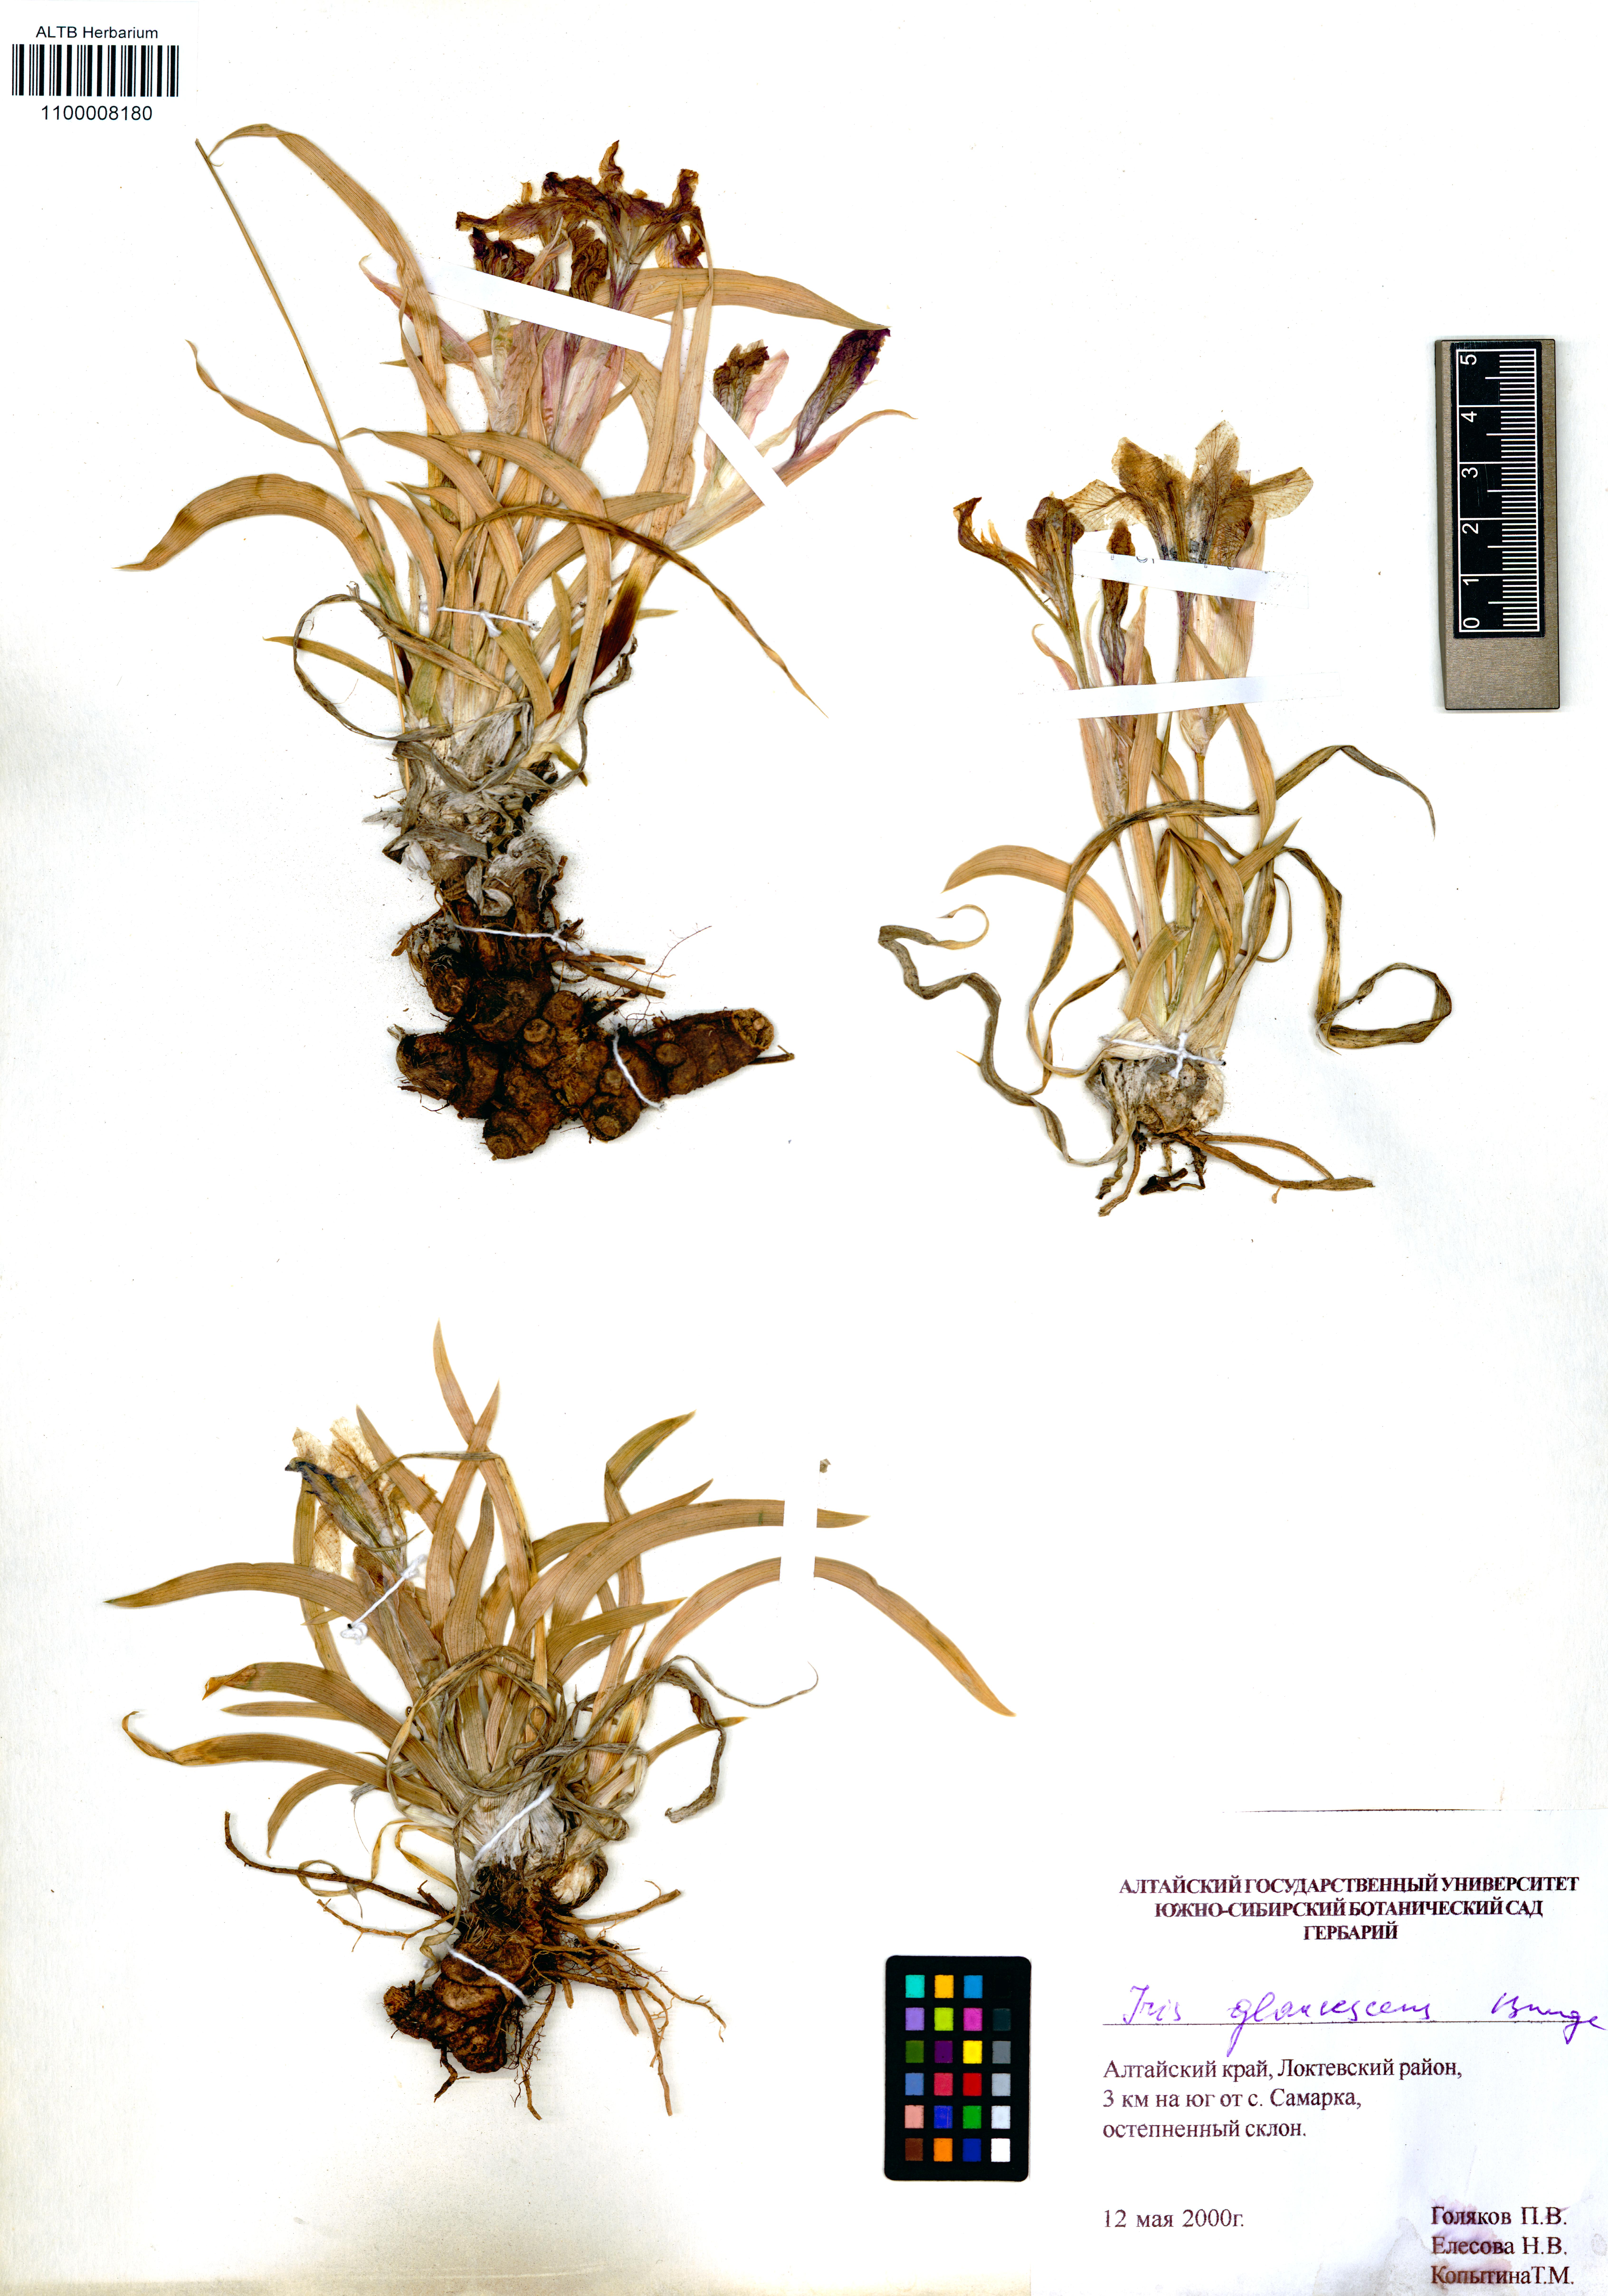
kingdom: Plantae
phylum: Tracheophyta
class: Liliopsida
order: Asparagales
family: Iridaceae
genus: Iris
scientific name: Iris glaucescens
